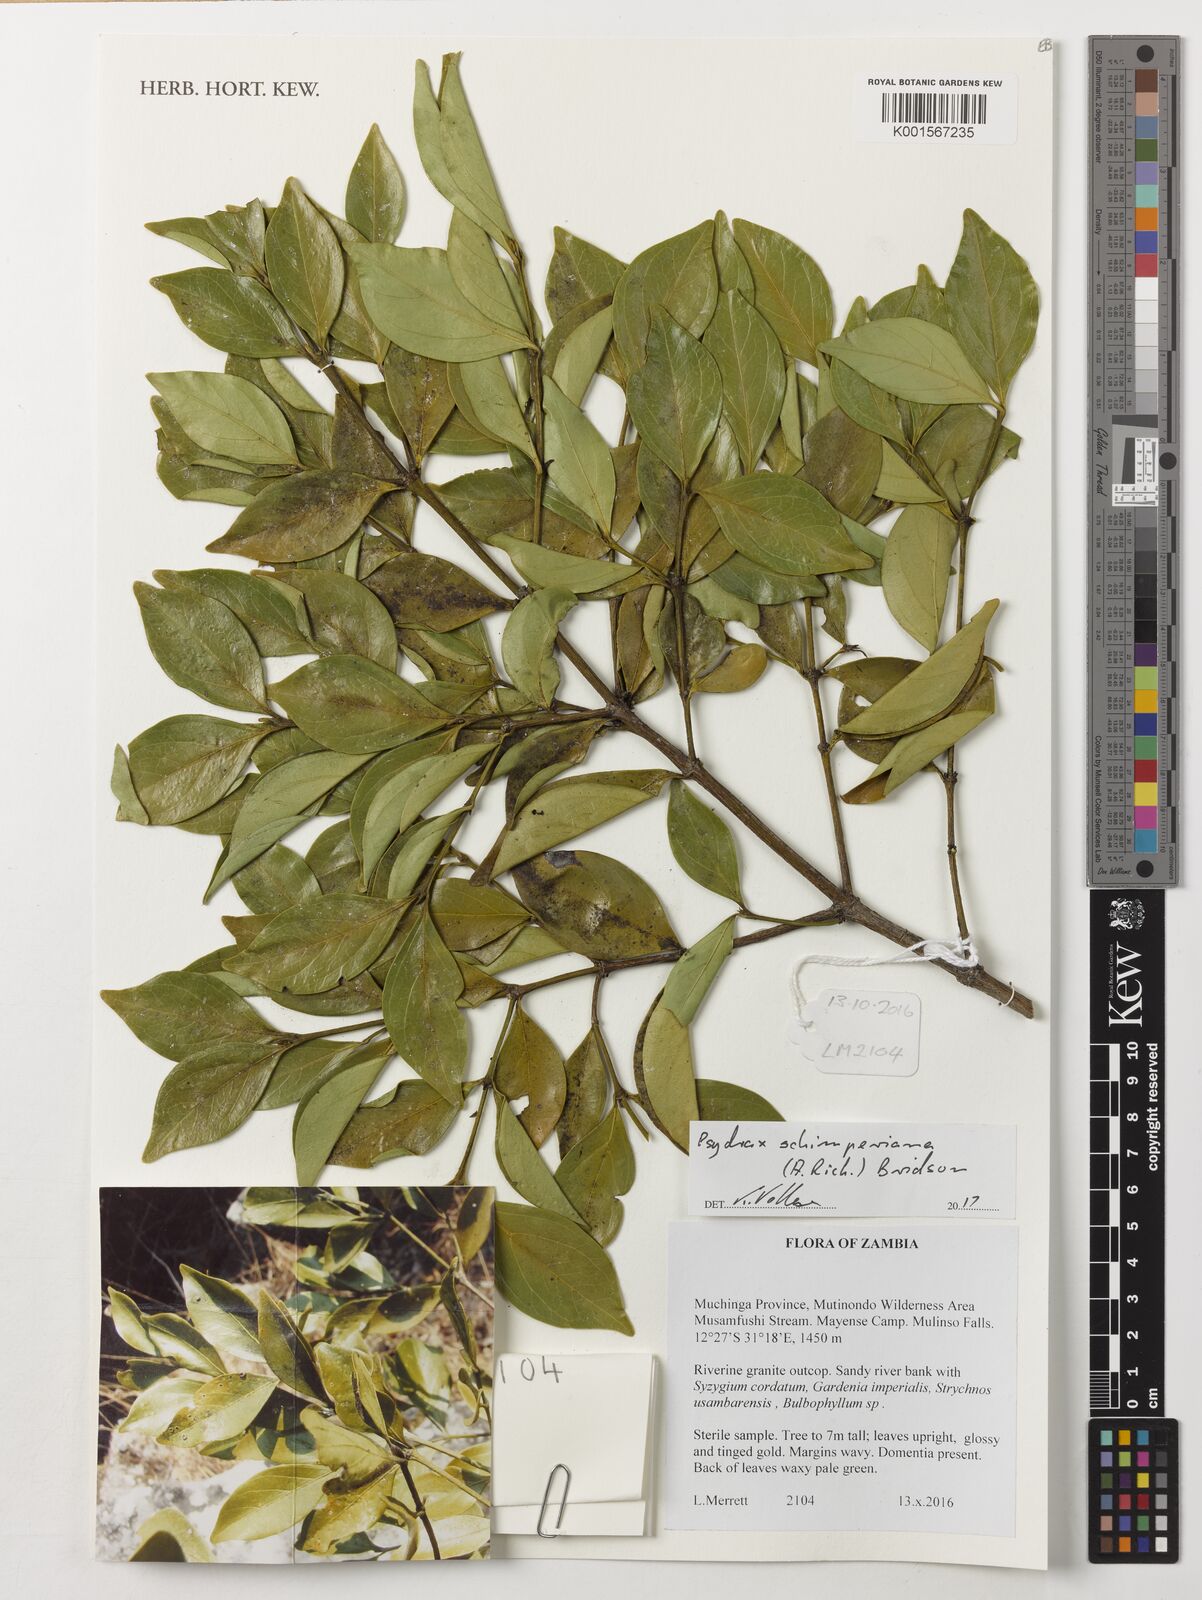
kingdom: Plantae
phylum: Tracheophyta
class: Magnoliopsida
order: Gentianales
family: Rubiaceae
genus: Psydrax
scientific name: Psydrax schimperianus
